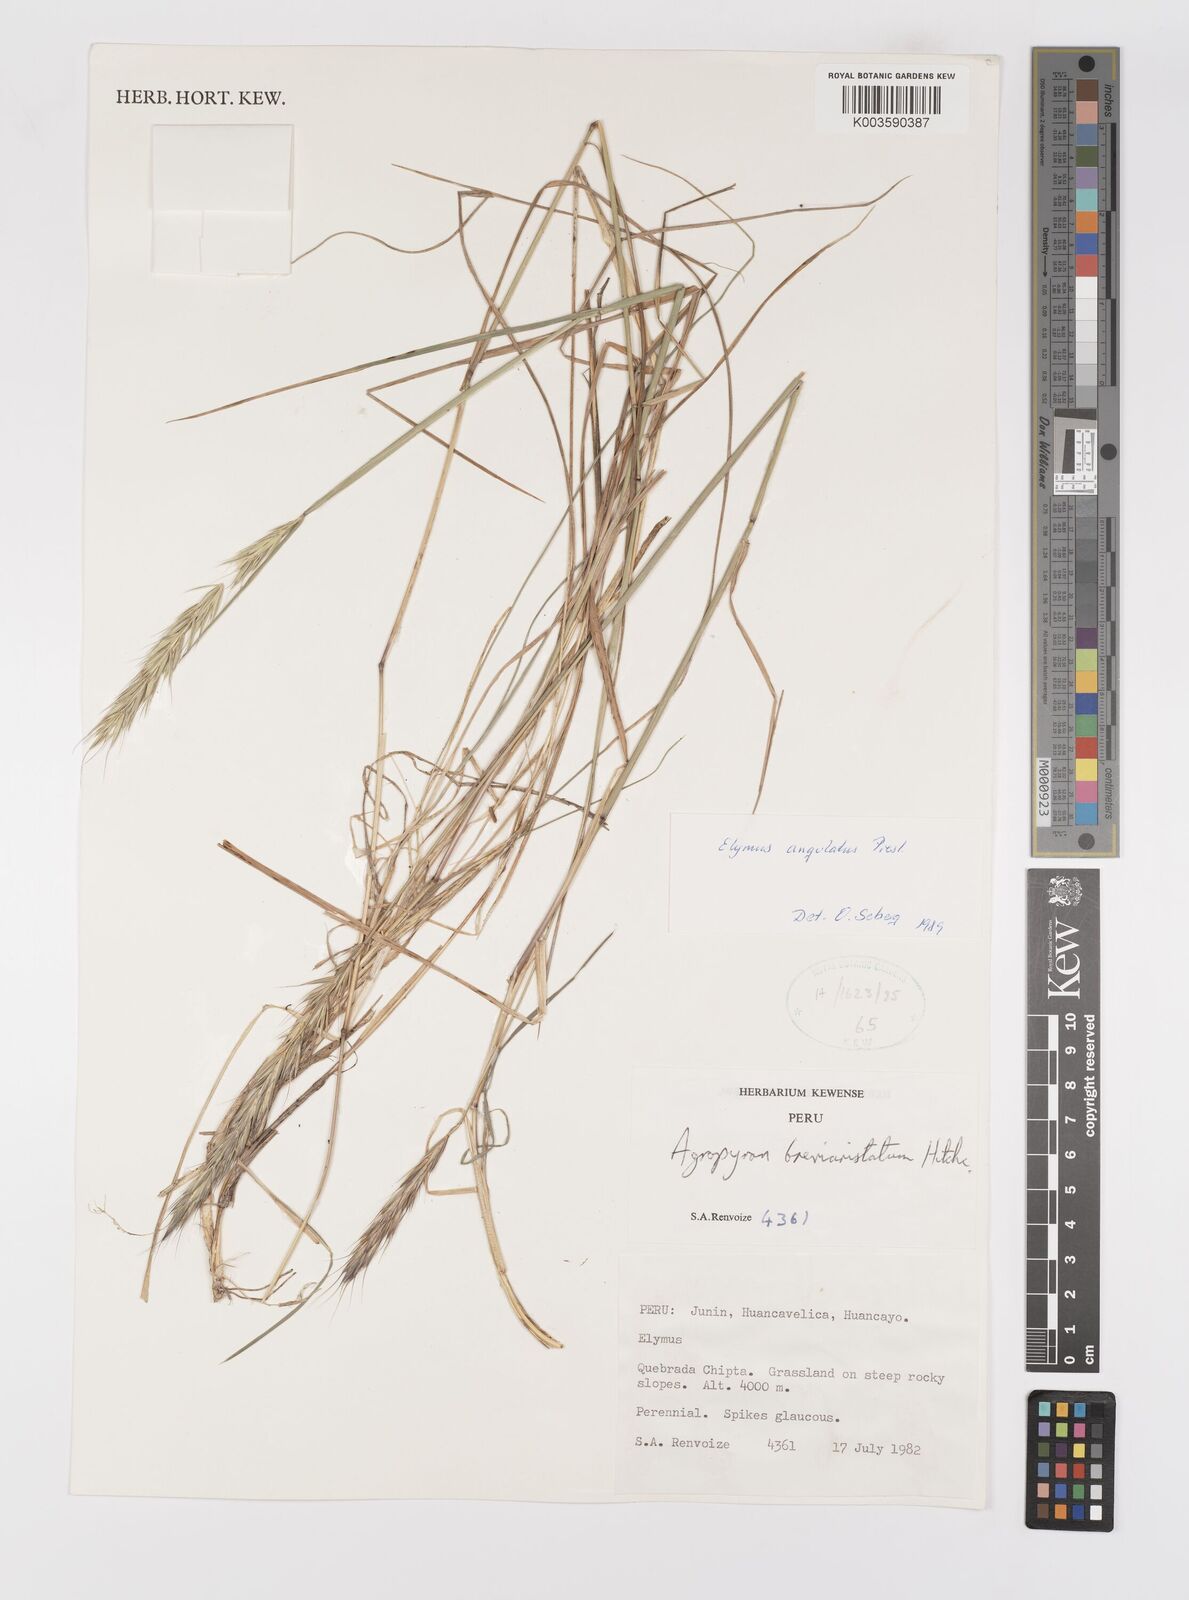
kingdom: Plantae
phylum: Tracheophyta
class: Liliopsida
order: Poales
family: Poaceae
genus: Elymus
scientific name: Elymus angulatus
